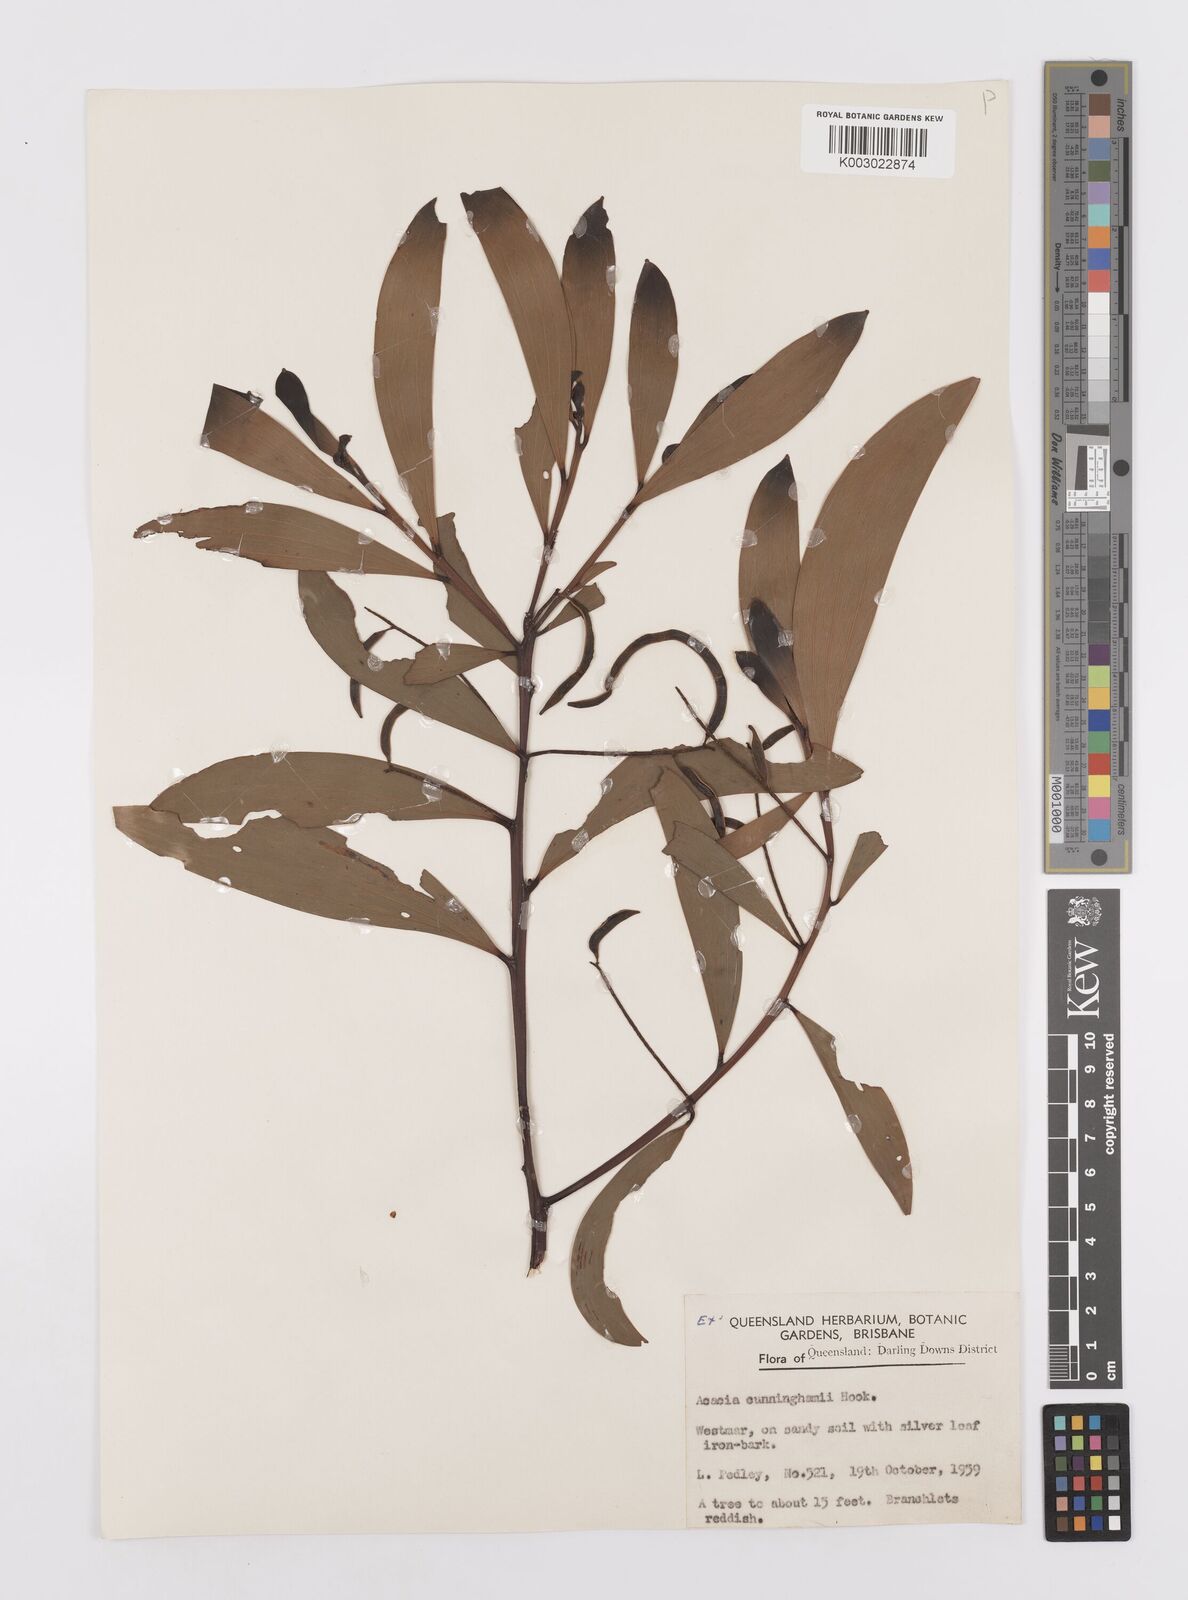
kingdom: Plantae
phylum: Tracheophyta
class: Magnoliopsida
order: Fabales
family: Fabaceae
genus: Acacia
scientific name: Acacia longispicata
